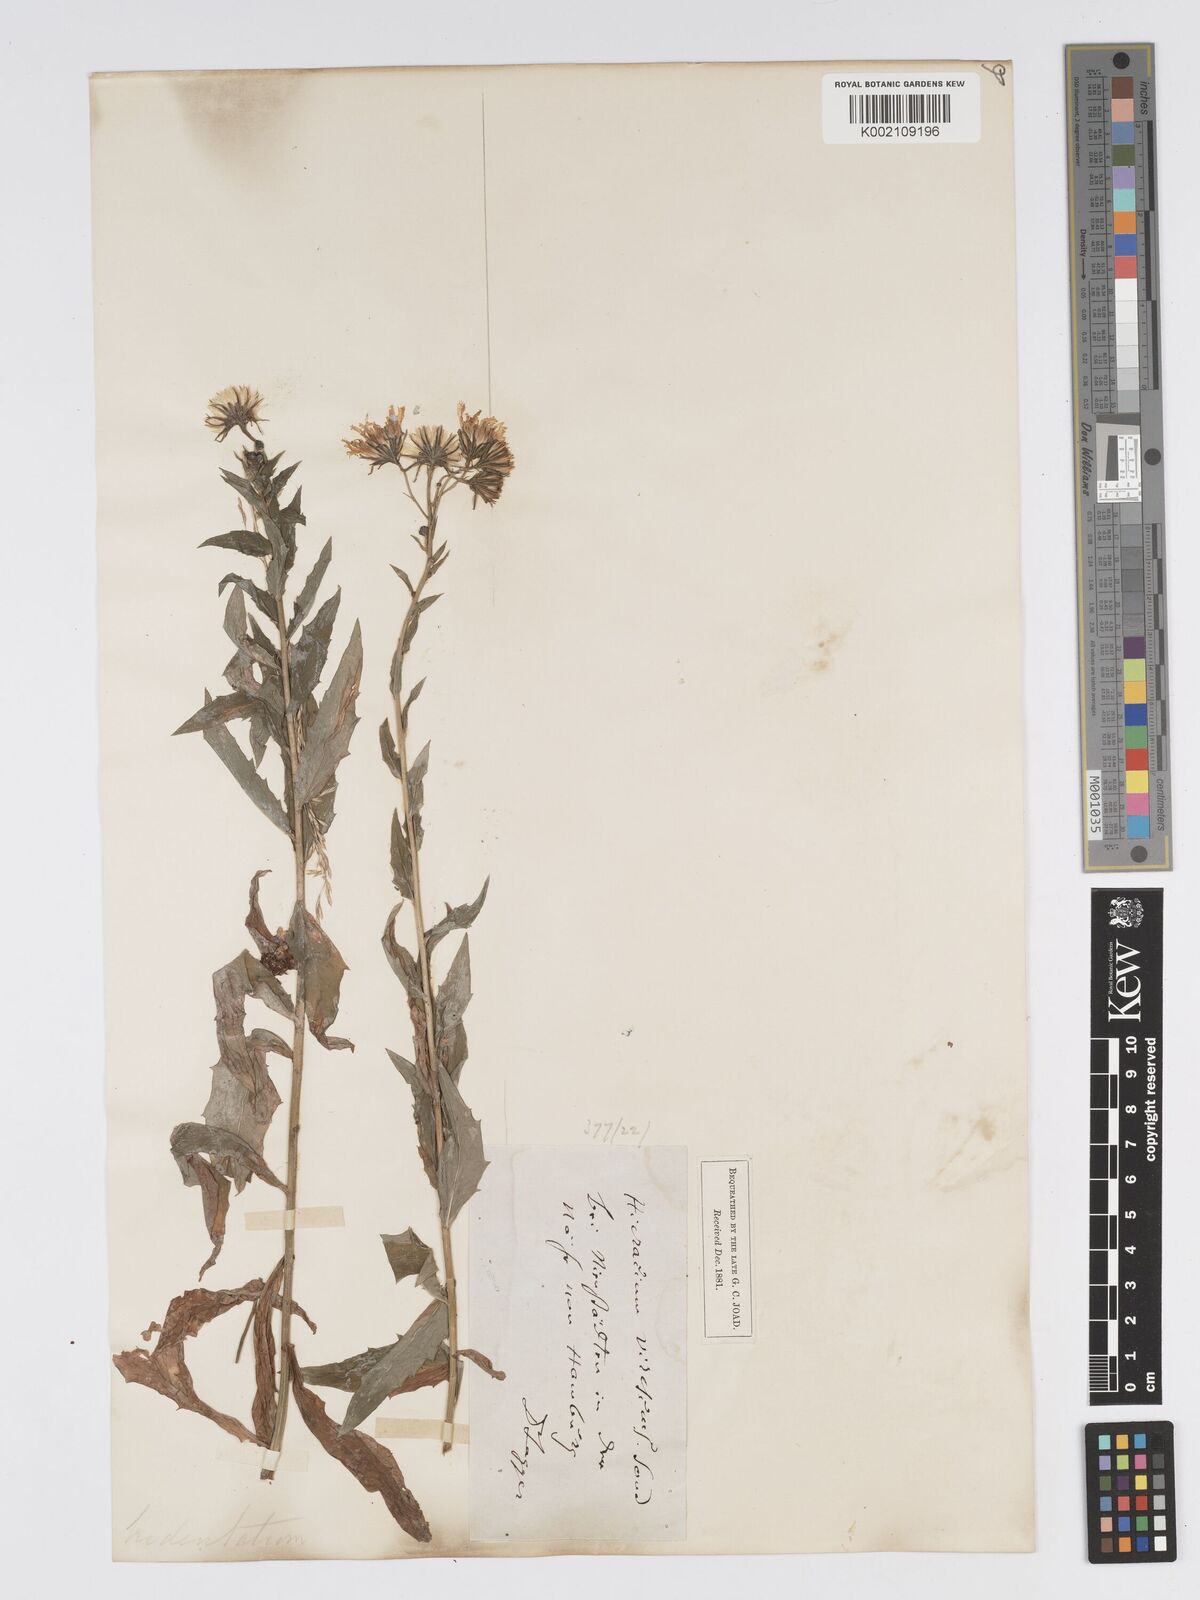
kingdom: Plantae
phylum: Tracheophyta
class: Magnoliopsida
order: Asterales
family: Asteraceae
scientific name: Asteraceae
